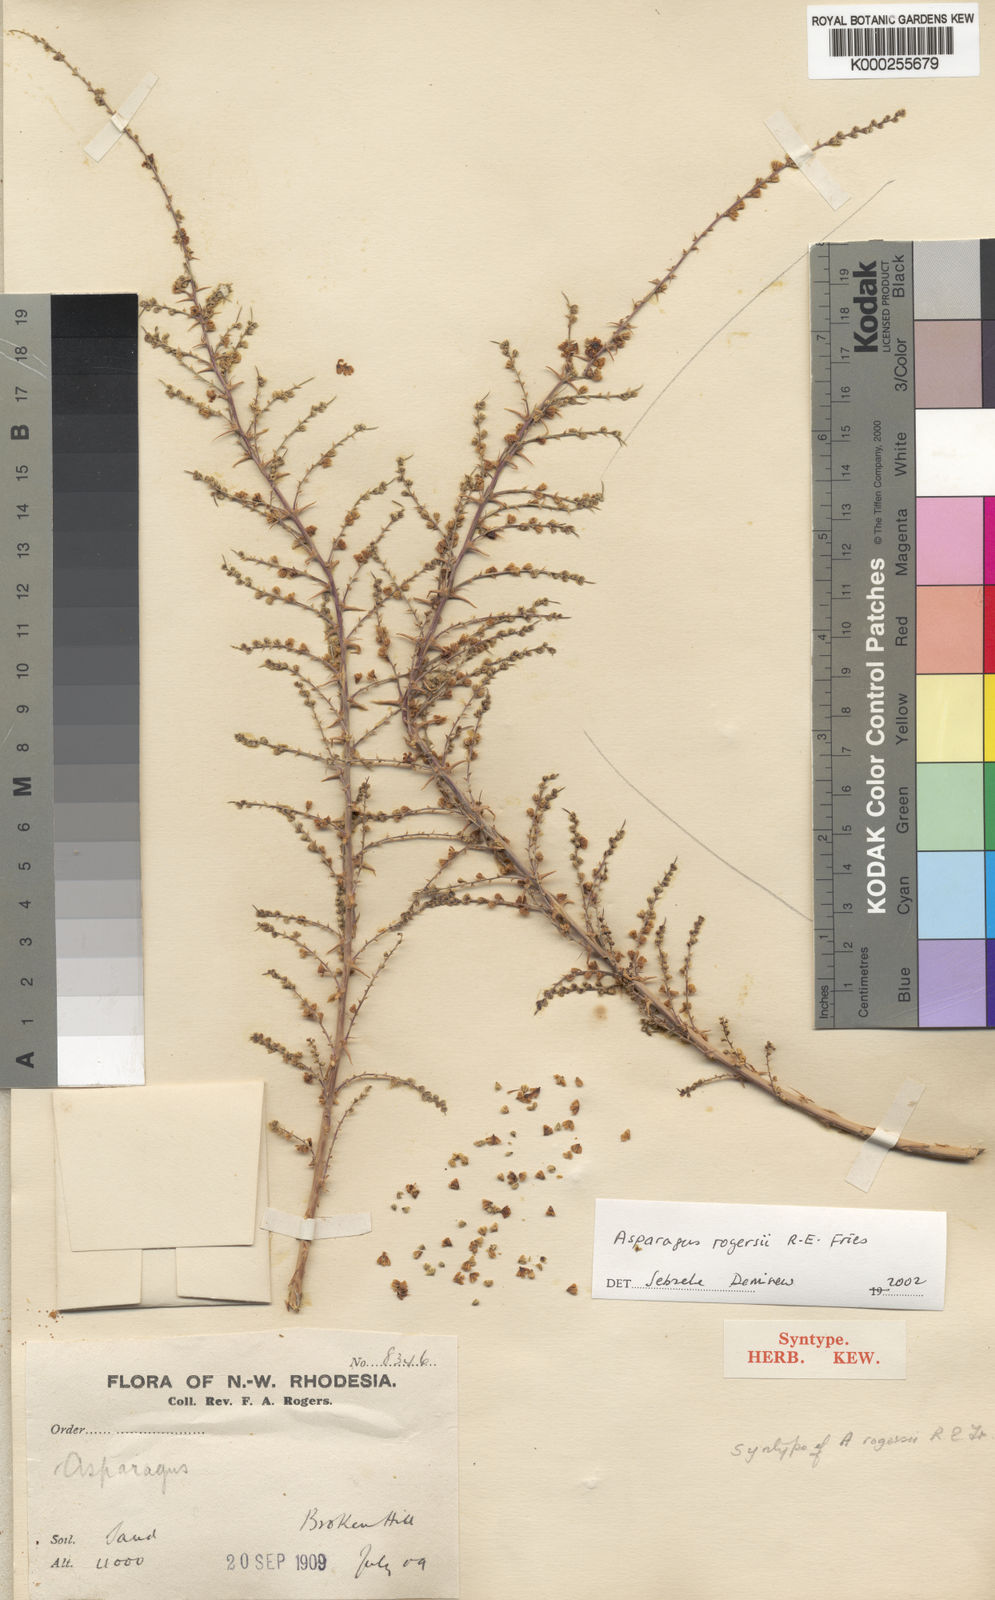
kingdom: Plantae
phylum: Tracheophyta
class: Liliopsida
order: Asparagales
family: Asparagaceae
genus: Asparagus
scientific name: Asparagus rogersii
